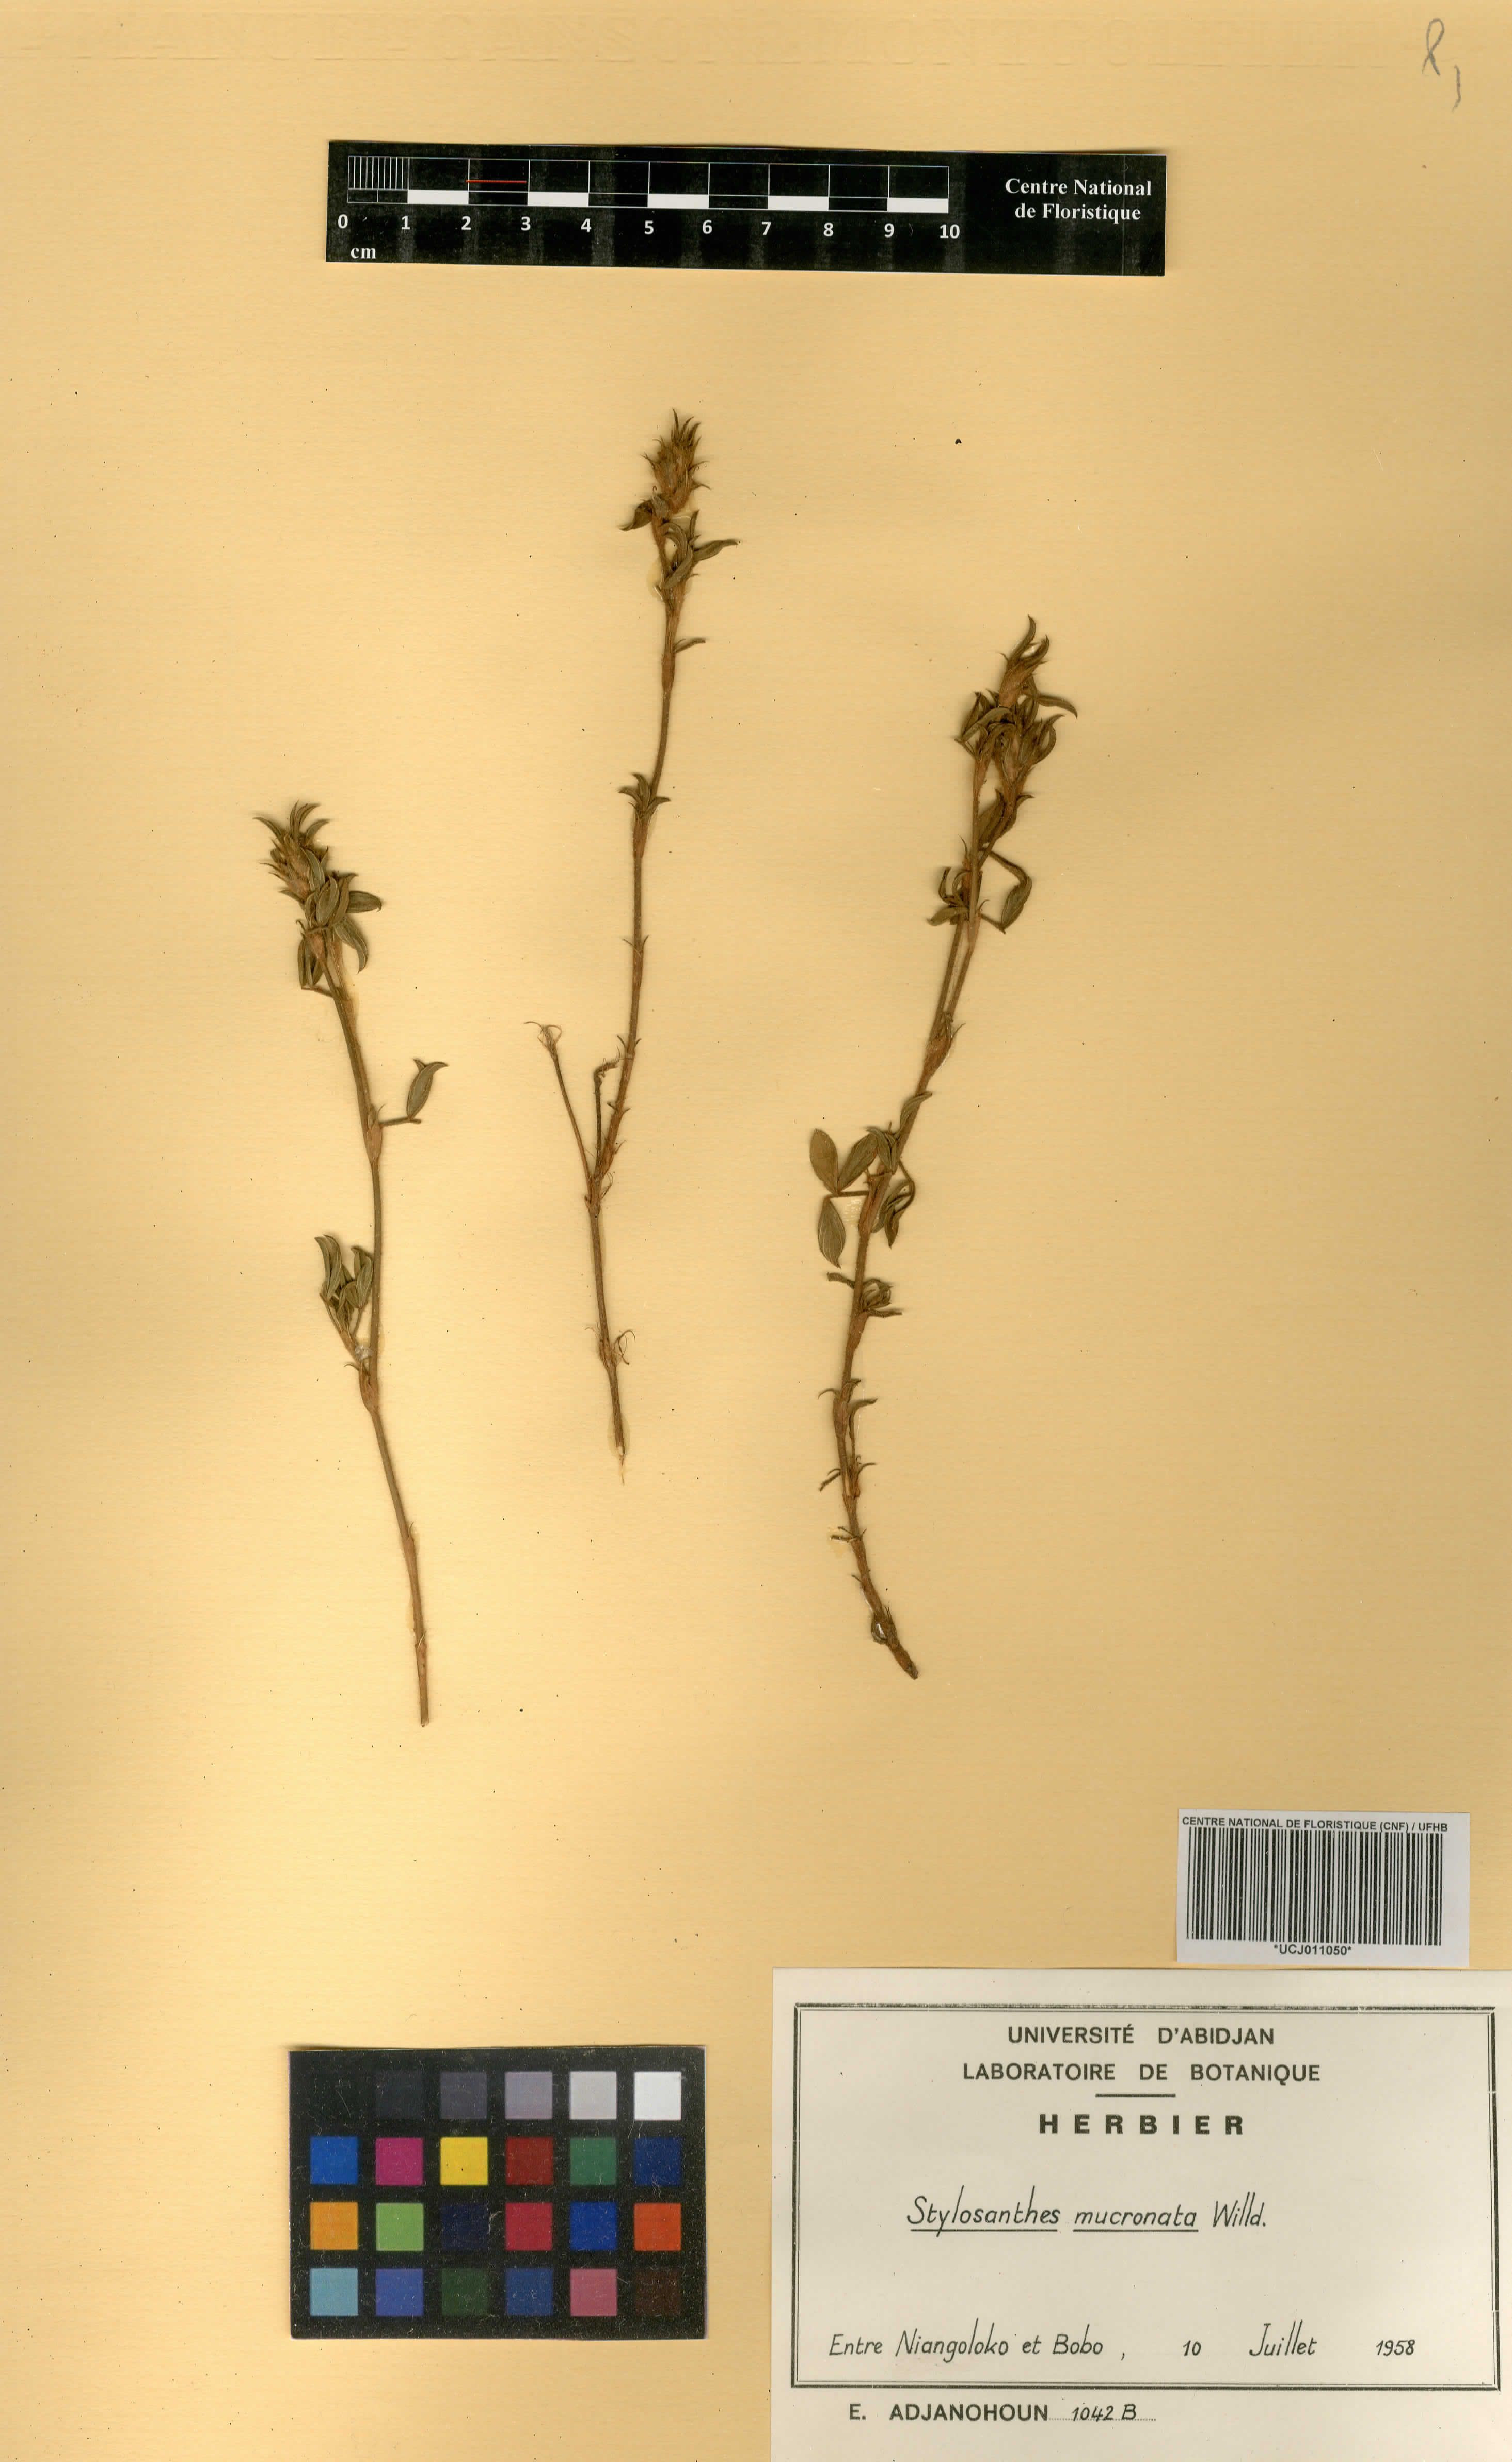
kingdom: Plantae
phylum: Tracheophyta
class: Magnoliopsida
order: Fabales
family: Fabaceae
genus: Stylosanthes
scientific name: Stylosanthes fruticosa
